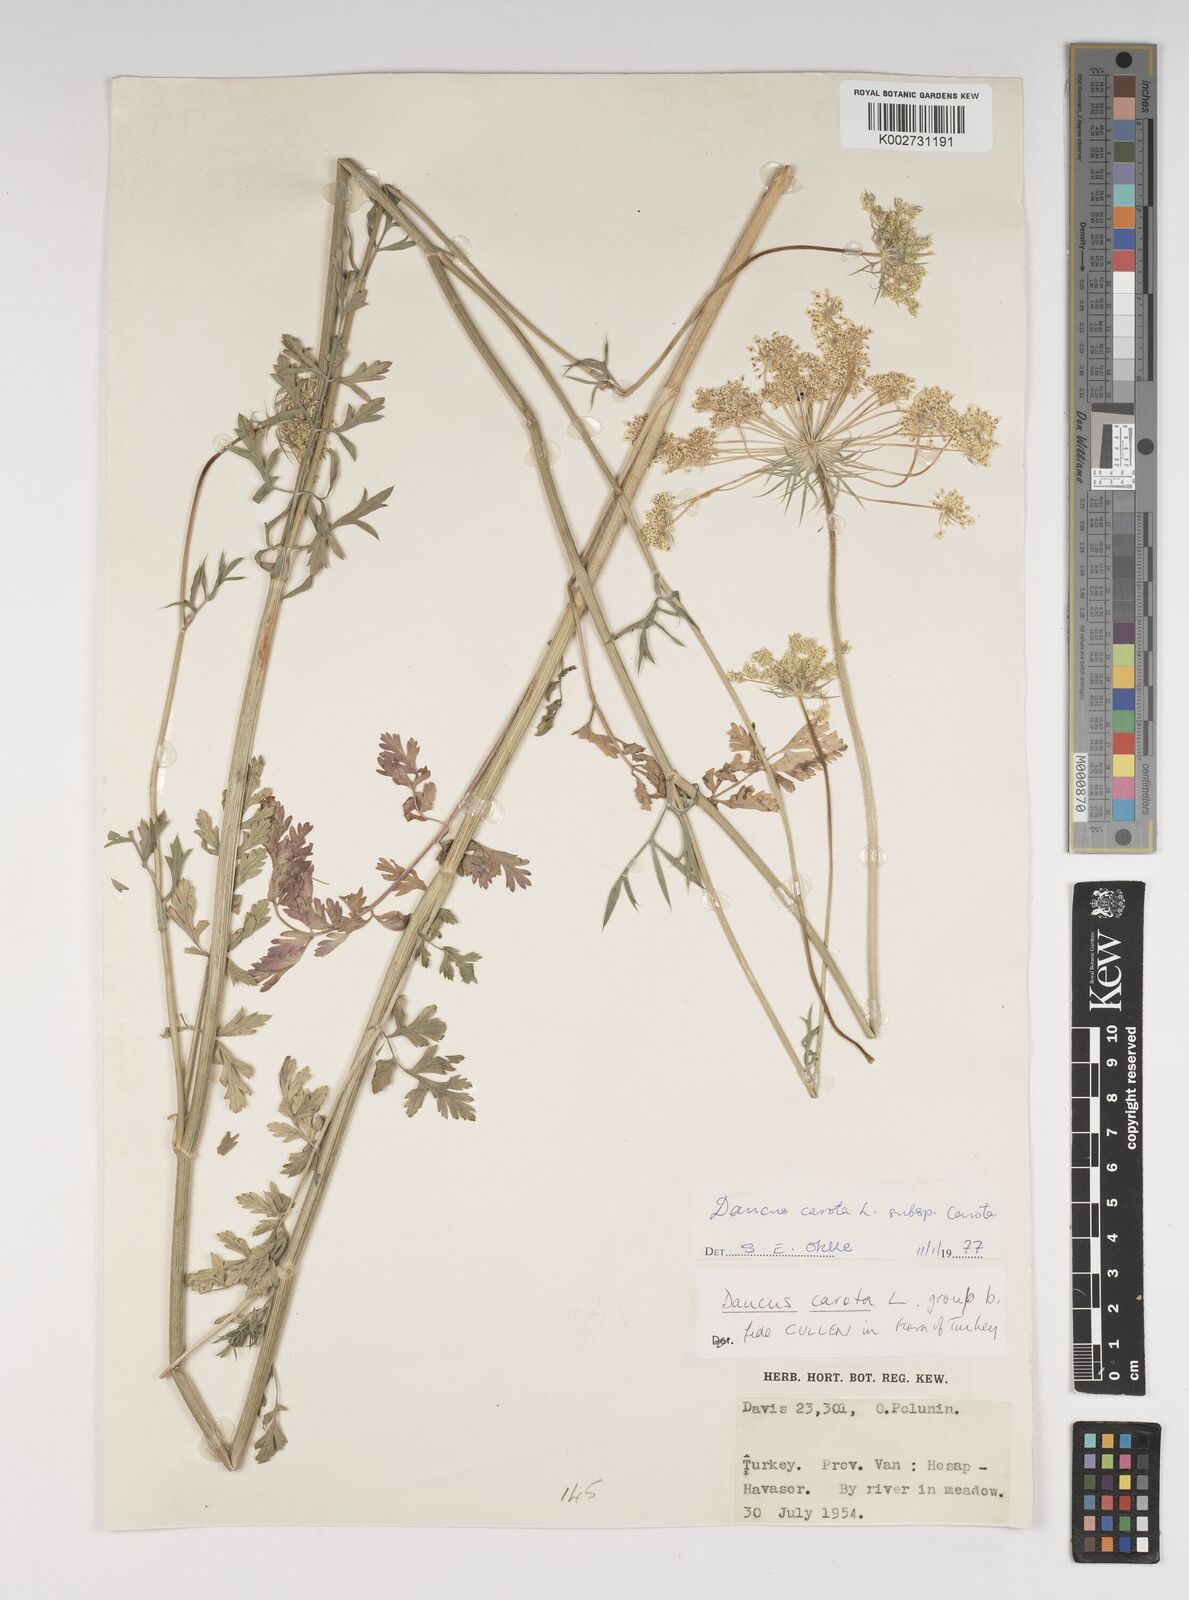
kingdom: Plantae
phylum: Tracheophyta
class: Magnoliopsida
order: Apiales
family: Apiaceae
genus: Daucus
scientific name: Daucus carota
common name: Wild carrot
